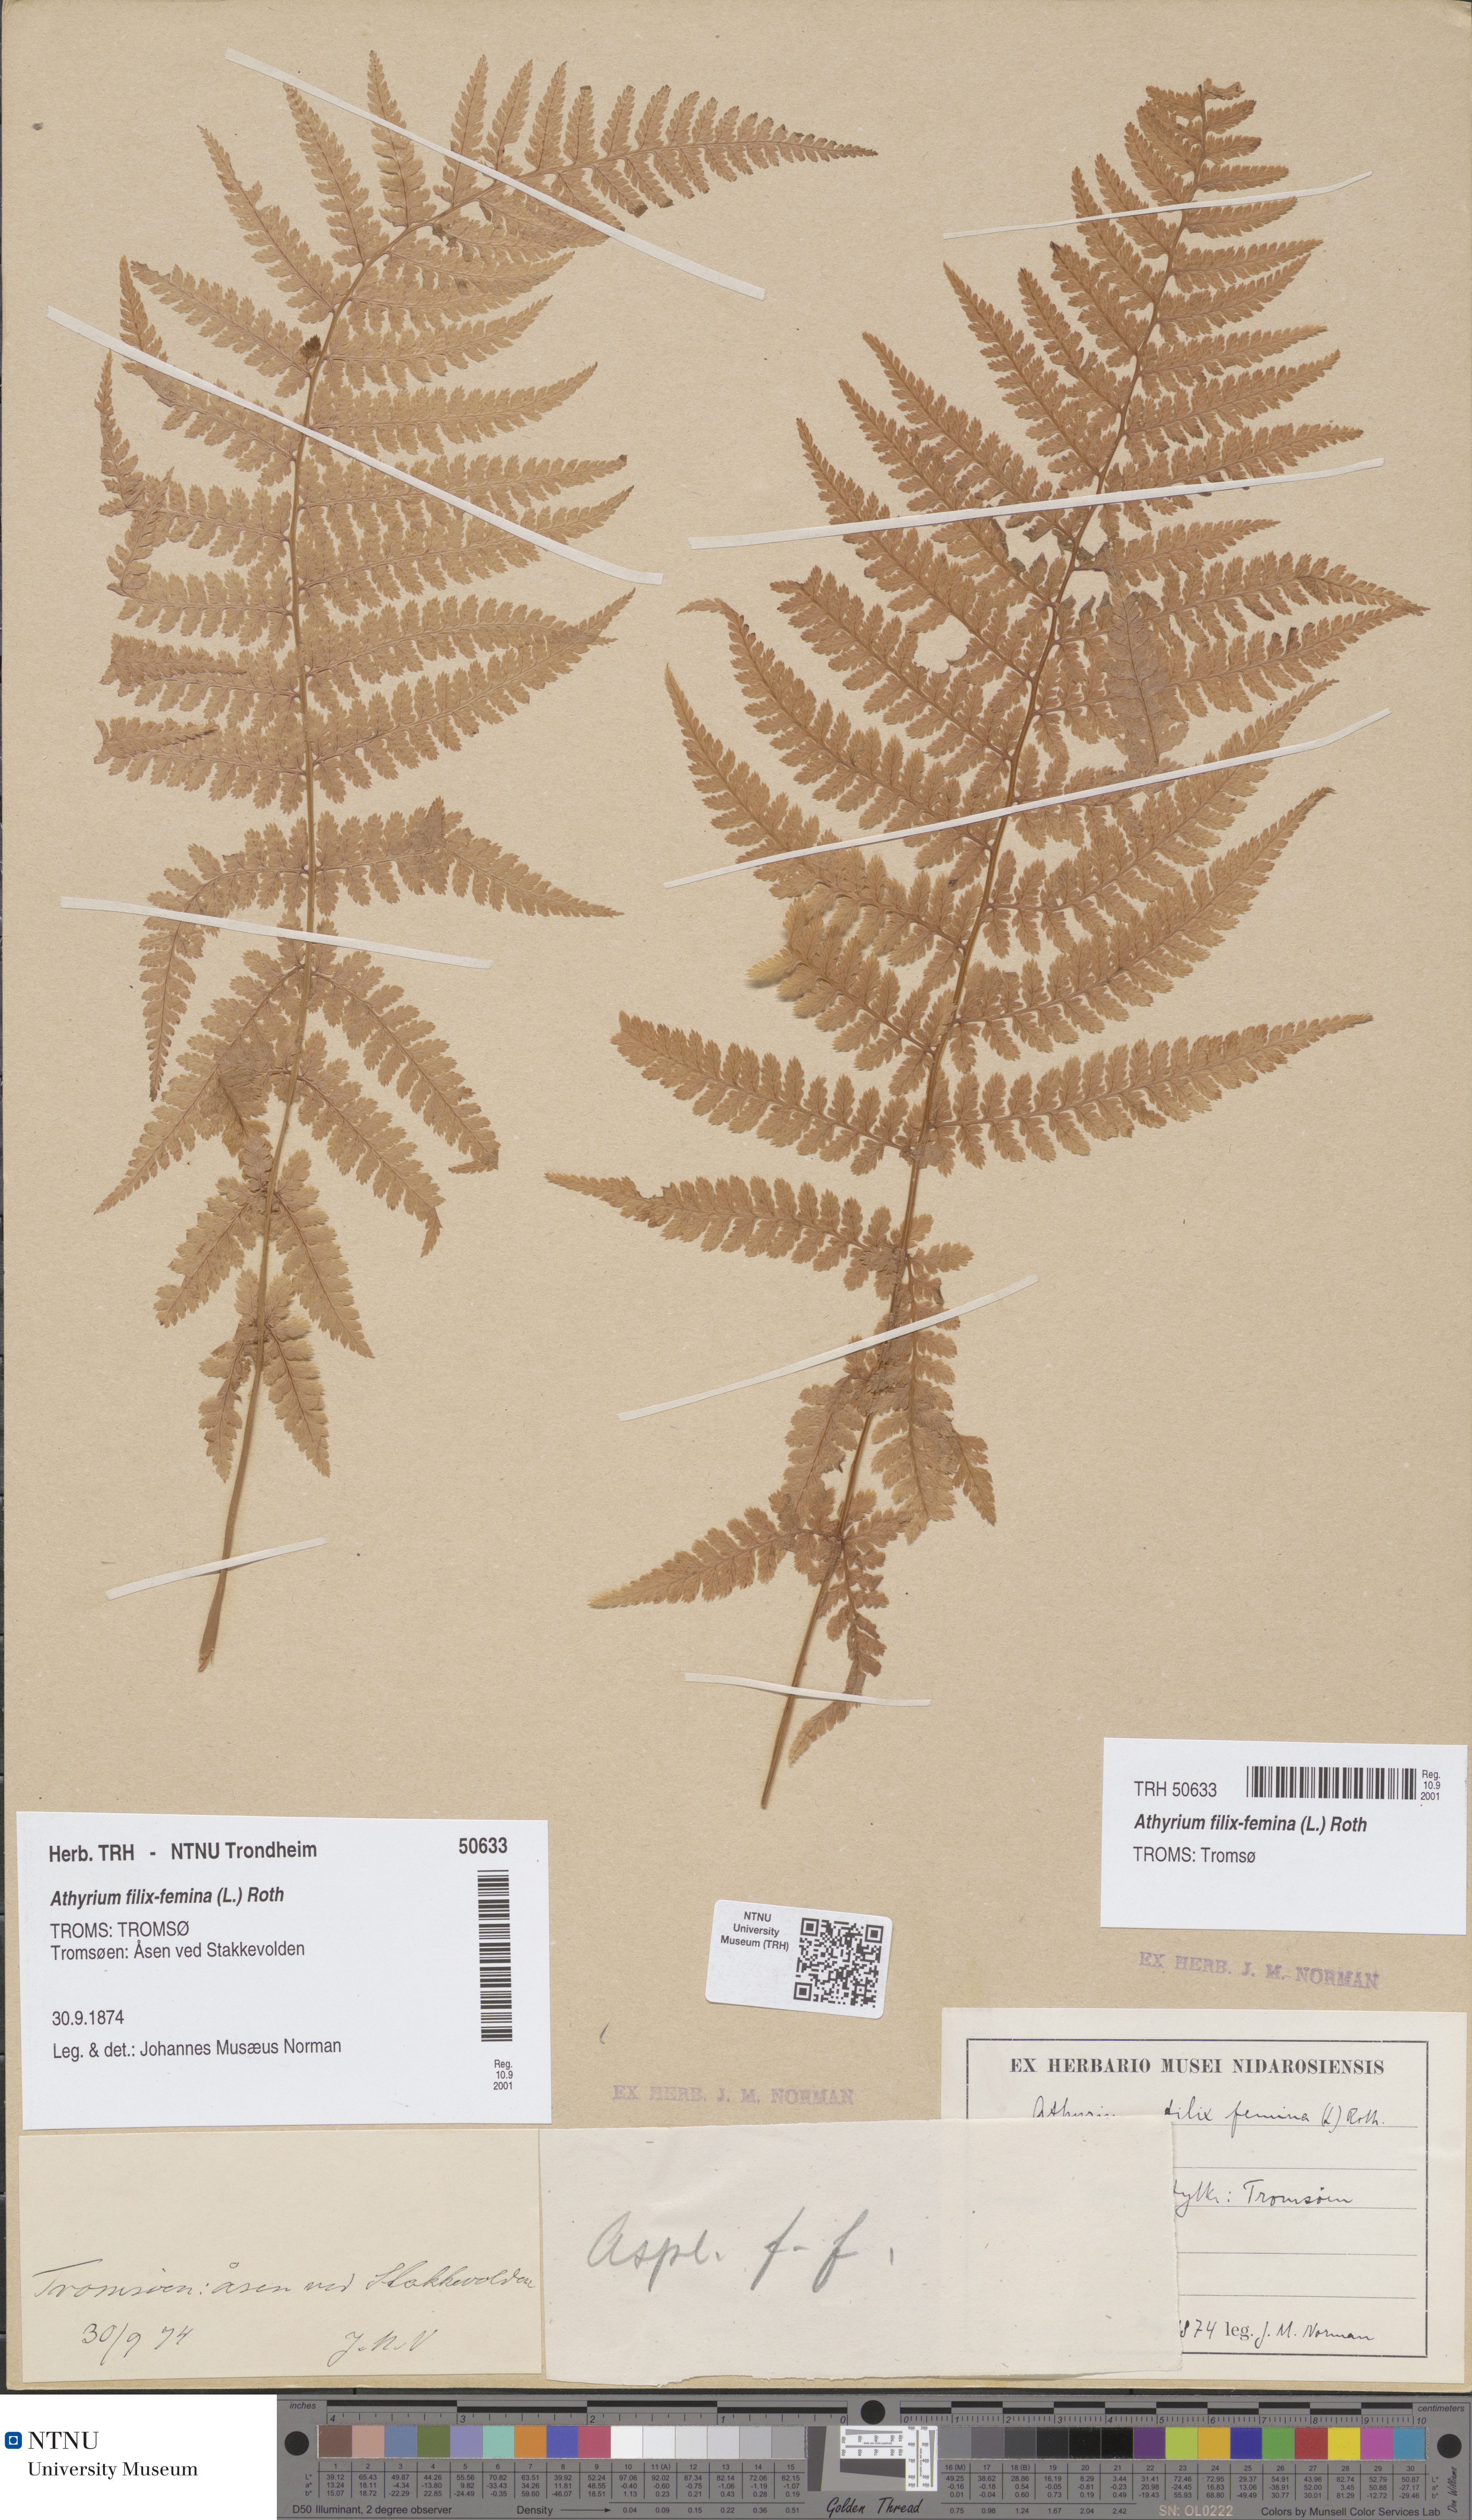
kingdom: Plantae
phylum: Tracheophyta
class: Polypodiopsida
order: Polypodiales
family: Athyriaceae
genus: Athyrium
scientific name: Athyrium filix-femina
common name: Lady fern
